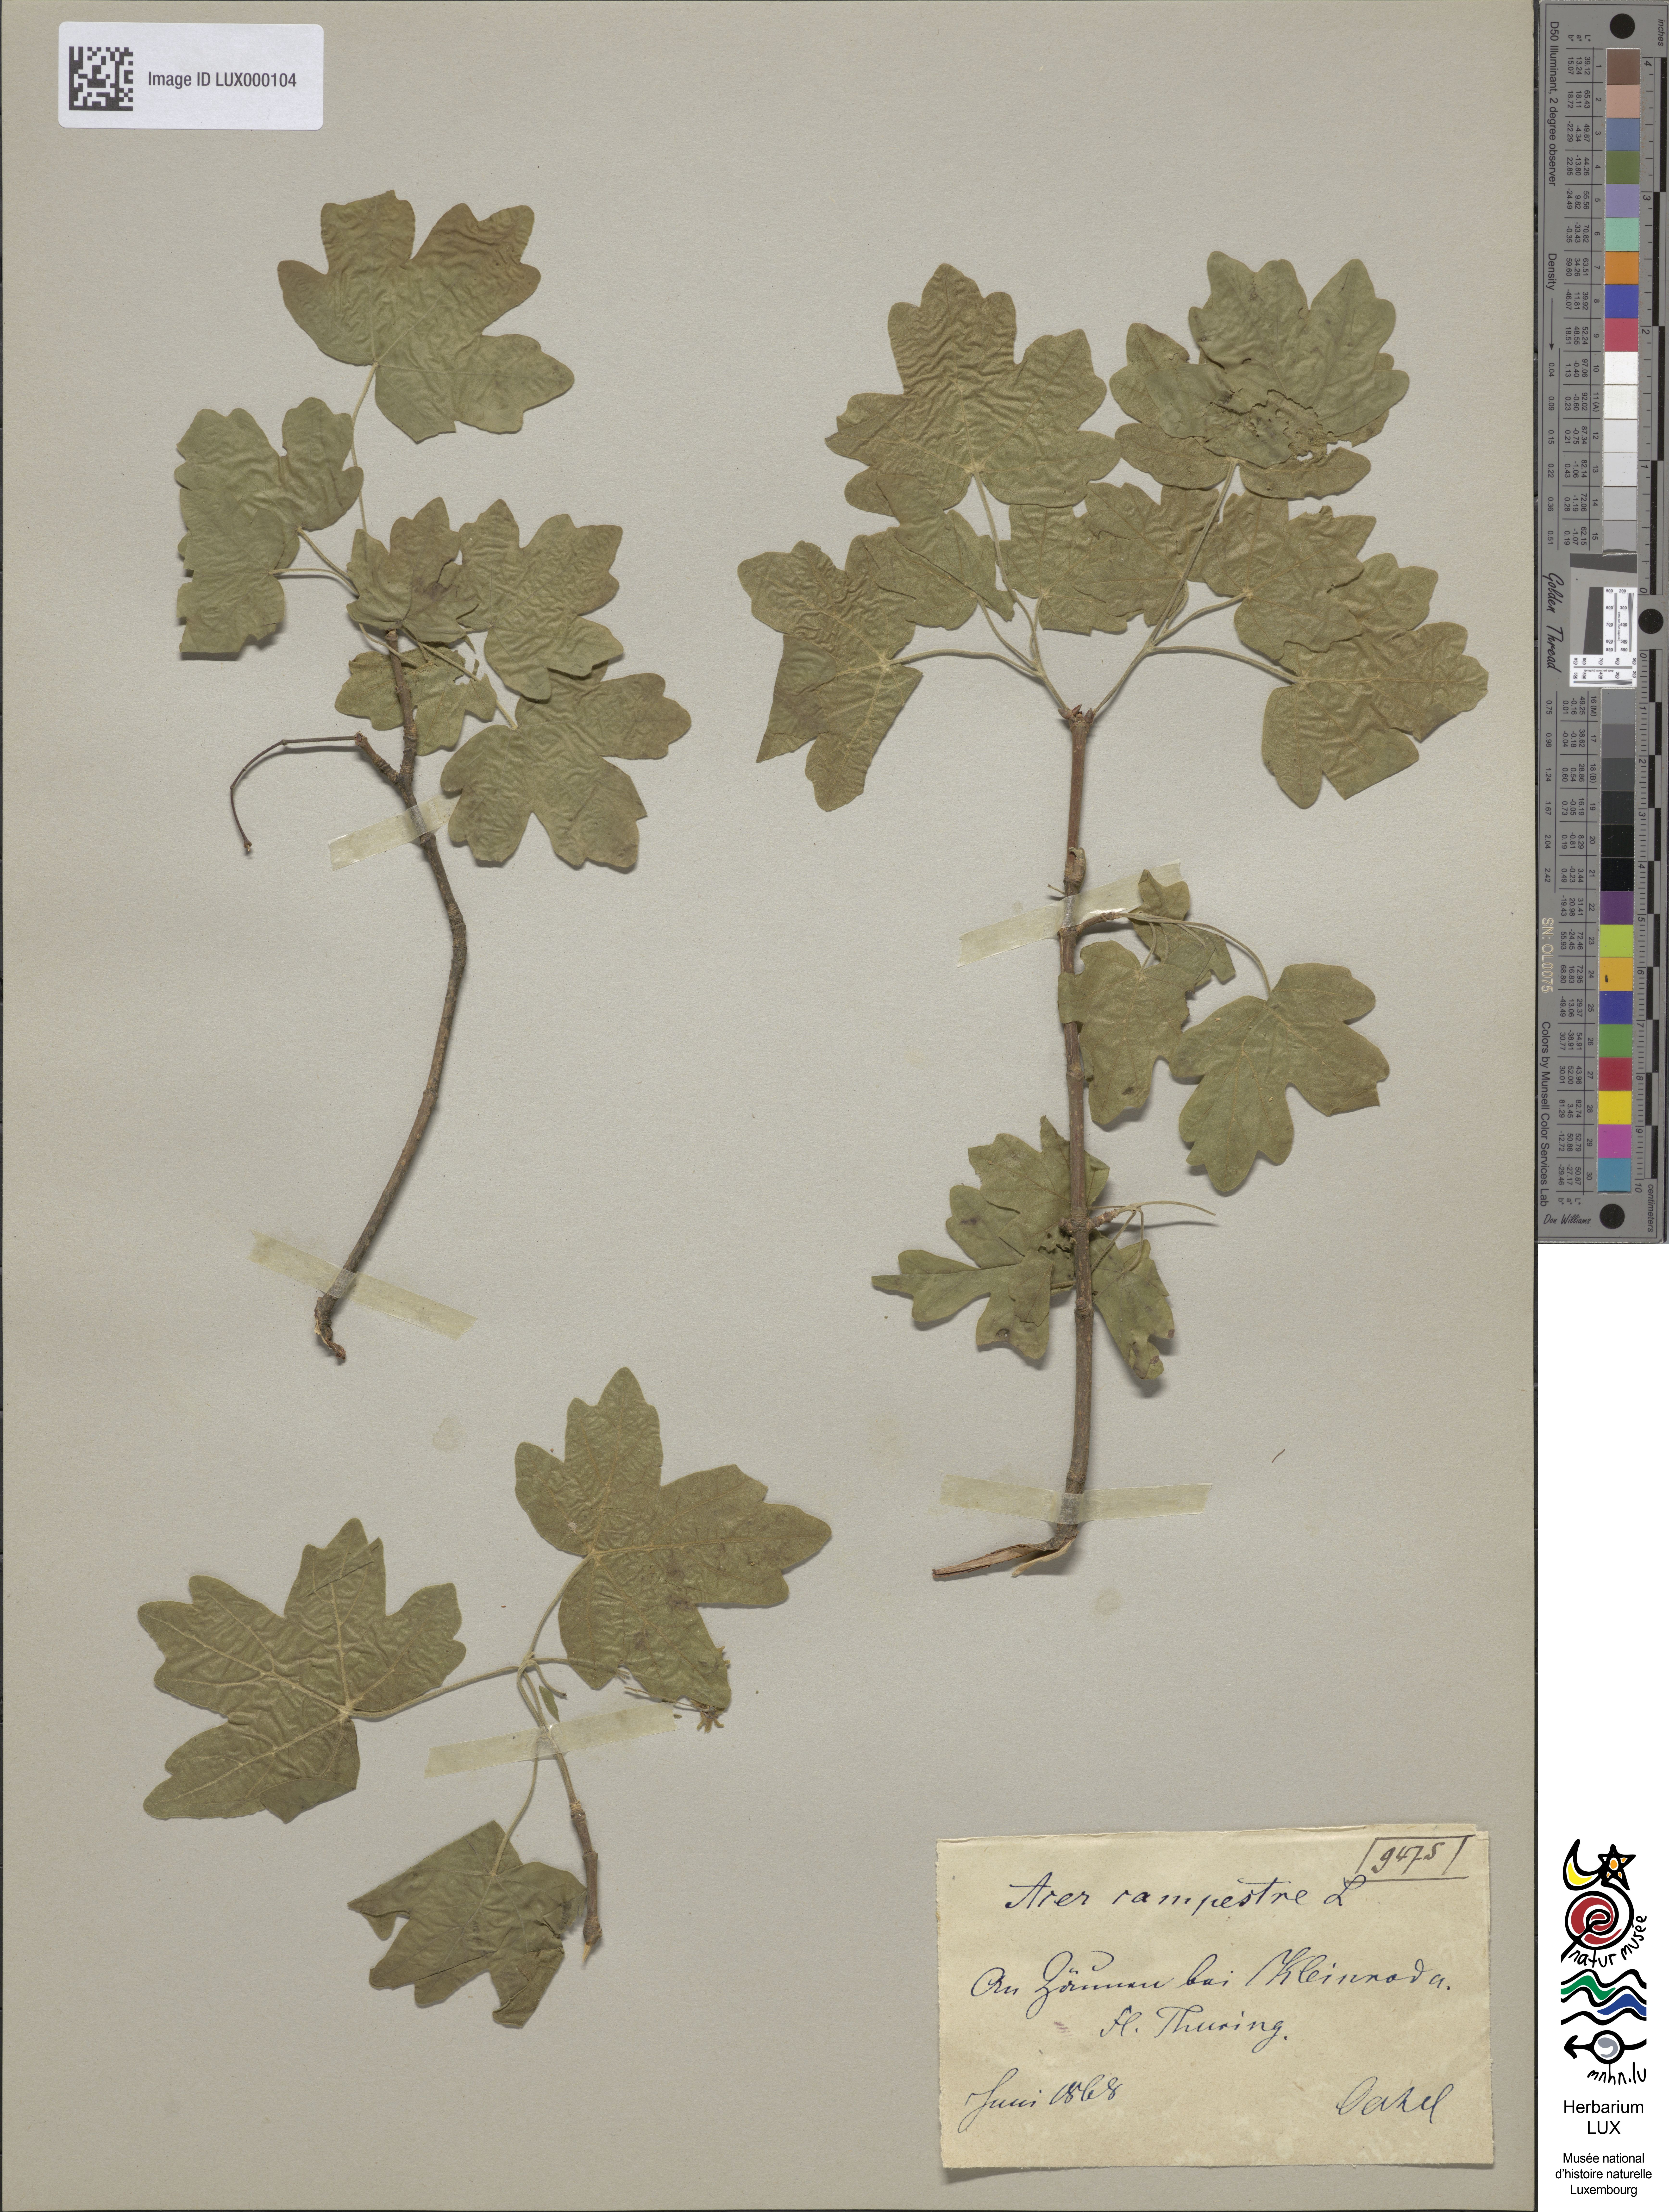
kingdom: Plantae
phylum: Tracheophyta
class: Magnoliopsida
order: Sapindales
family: Sapindaceae
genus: Acer
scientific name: Acer campestre
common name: Field maple
